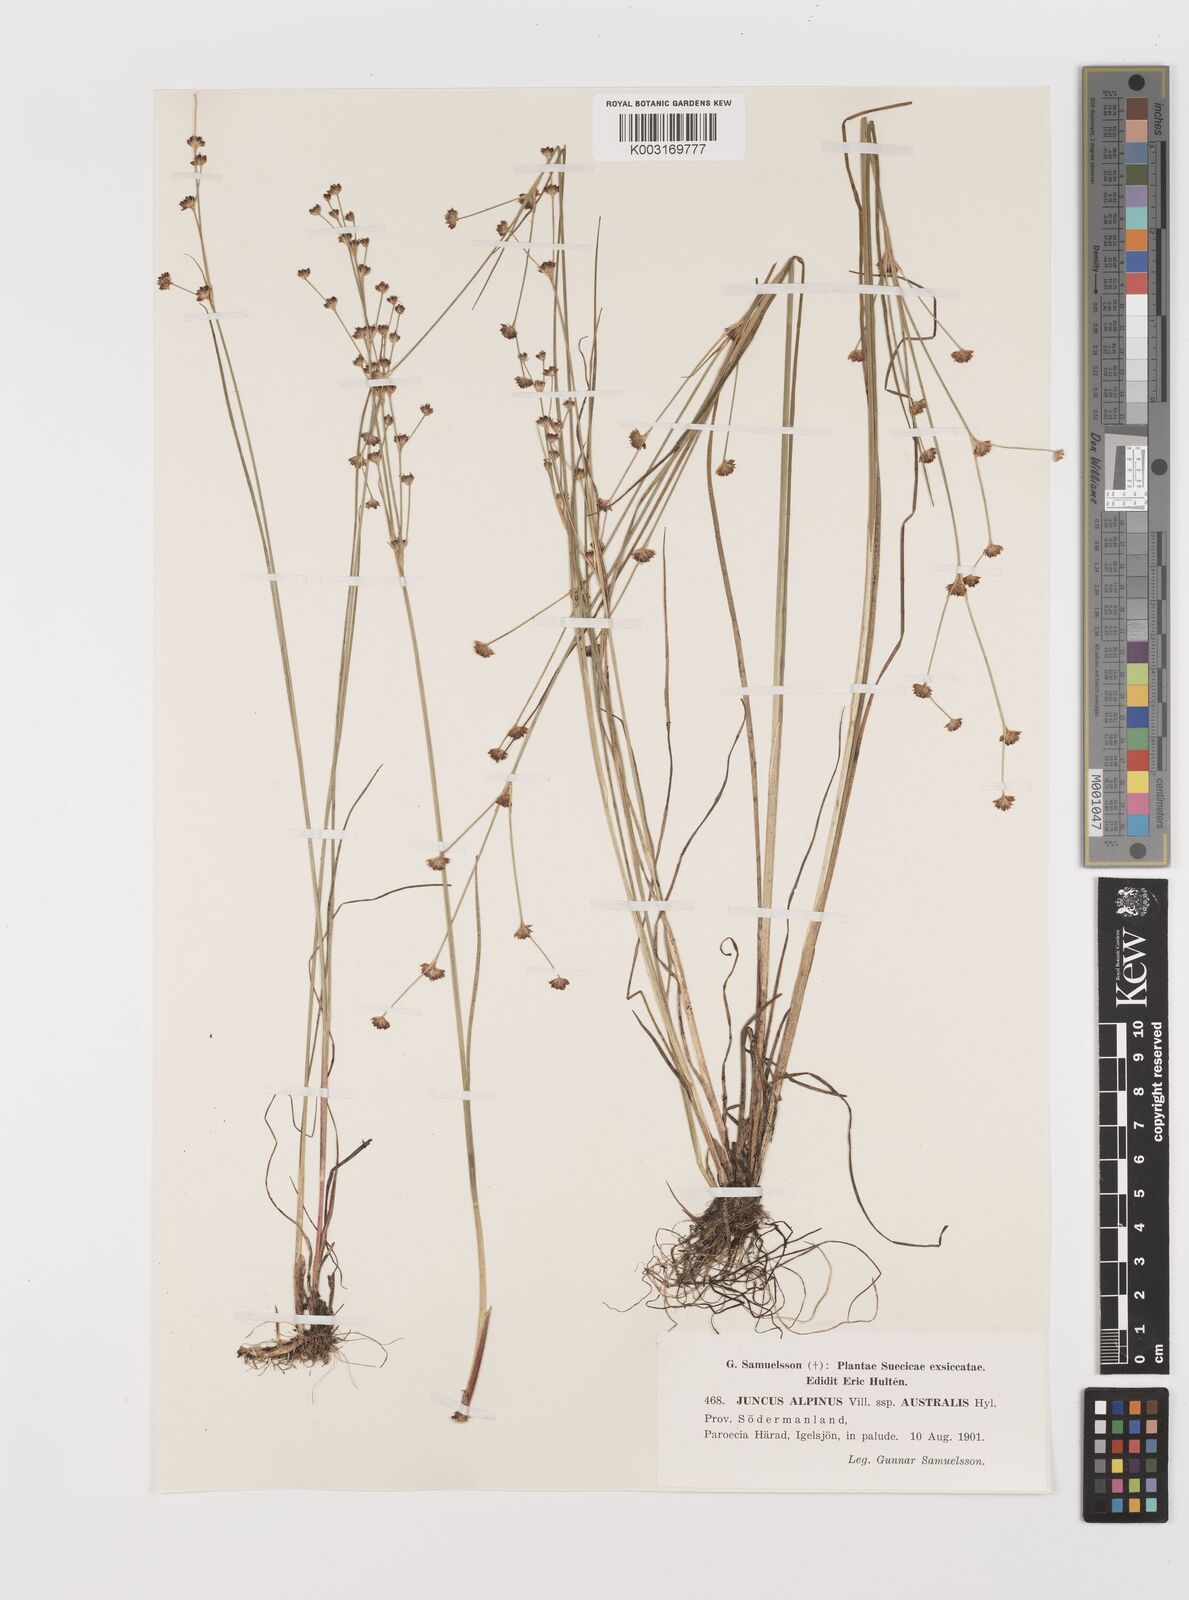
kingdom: Plantae
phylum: Tracheophyta
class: Liliopsida
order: Poales
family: Juncaceae
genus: Juncus
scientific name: Juncus alpinoarticulatus
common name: Alpine rush
